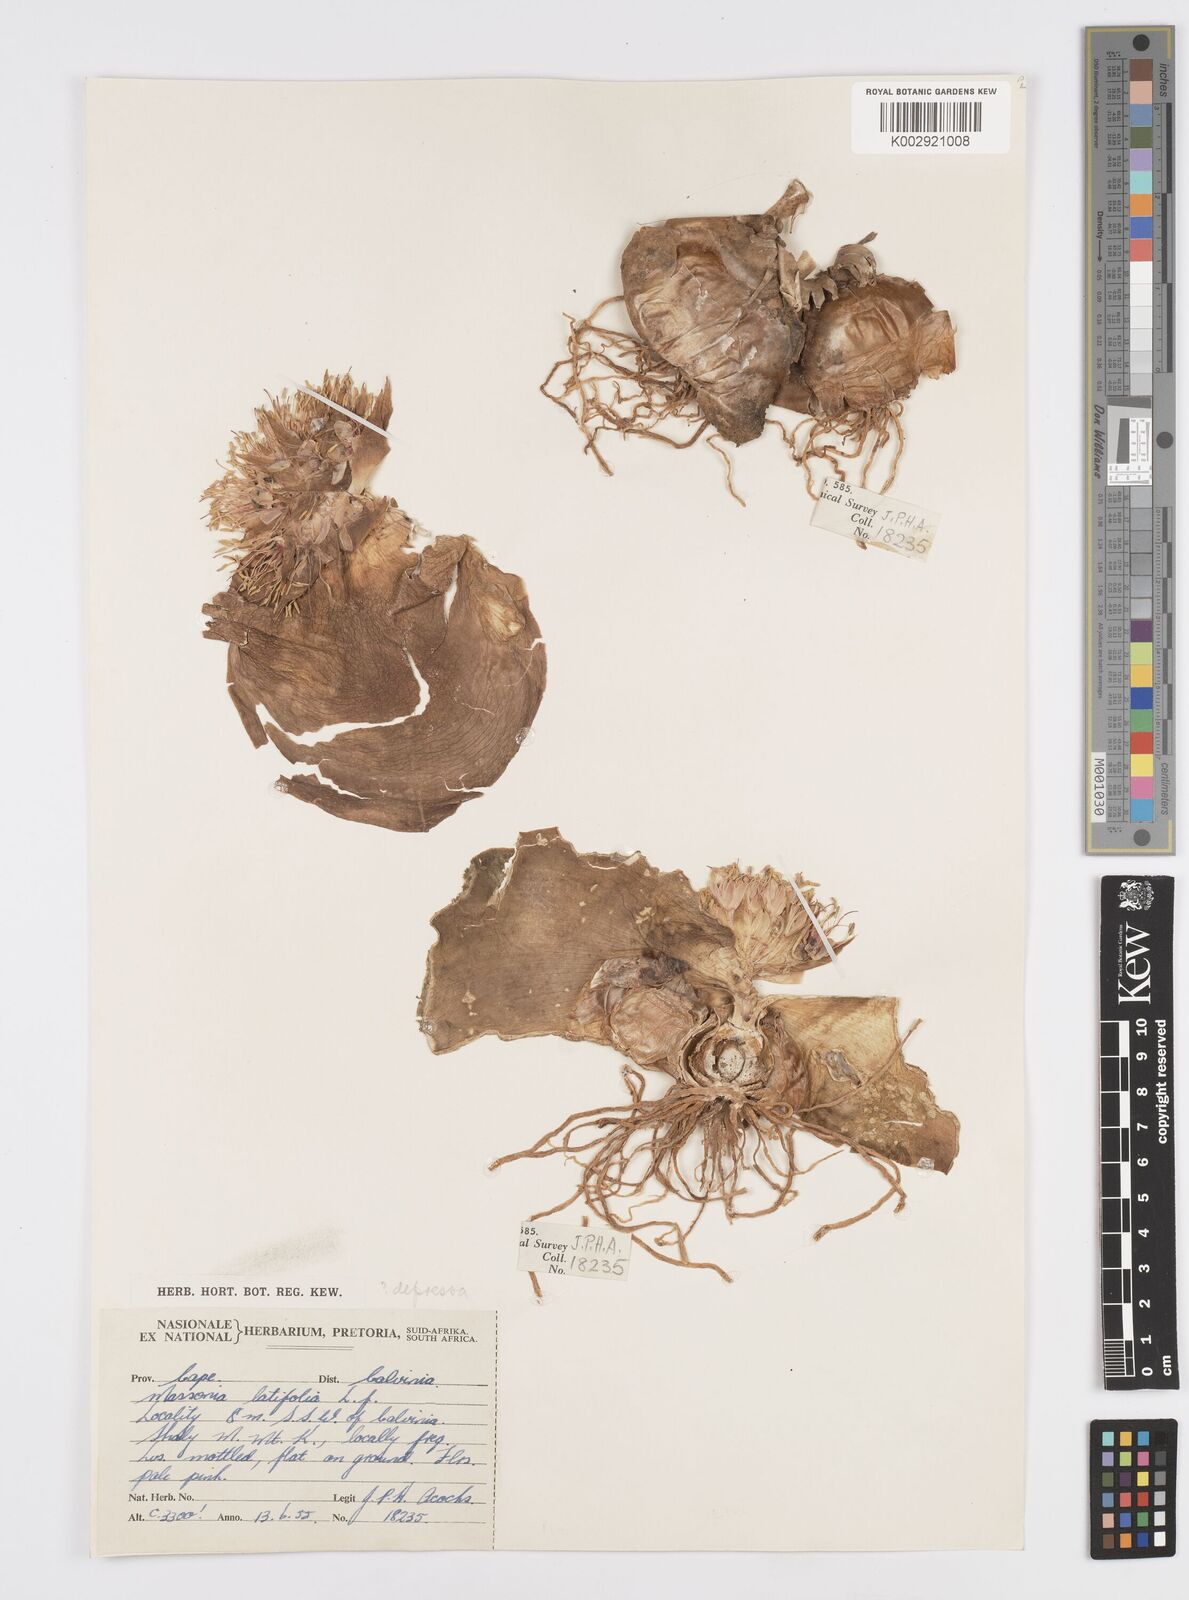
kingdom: Plantae
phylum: Tracheophyta
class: Liliopsida
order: Asparagales
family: Asparagaceae
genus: Massonia
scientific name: Massonia
